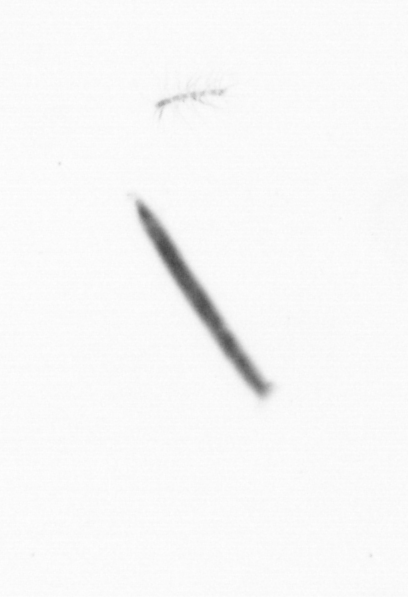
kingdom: Chromista
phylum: Ochrophyta
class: Bacillariophyceae
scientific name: Bacillariophyceae
